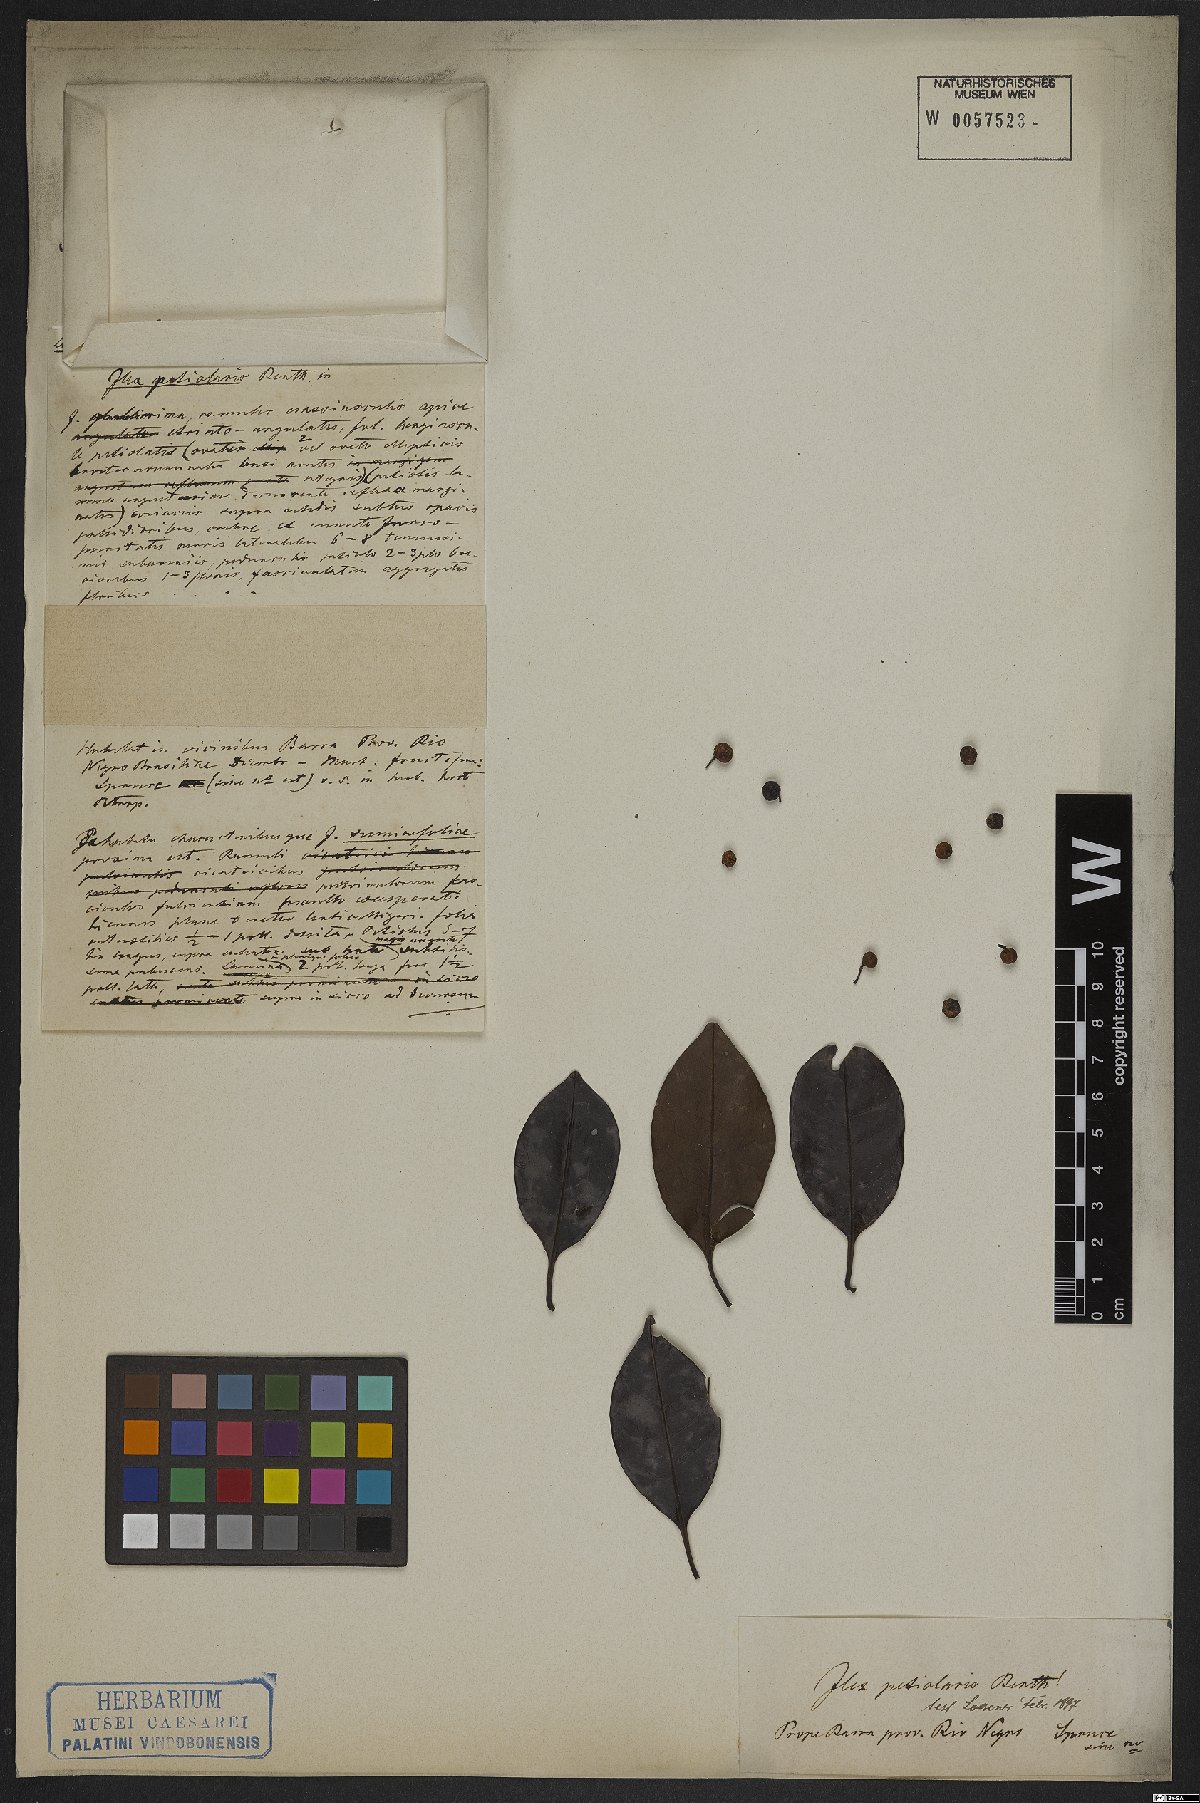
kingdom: Plantae
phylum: Tracheophyta
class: Magnoliopsida
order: Aquifoliales
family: Aquifoliaceae
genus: Ilex
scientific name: Ilex petiolaris
